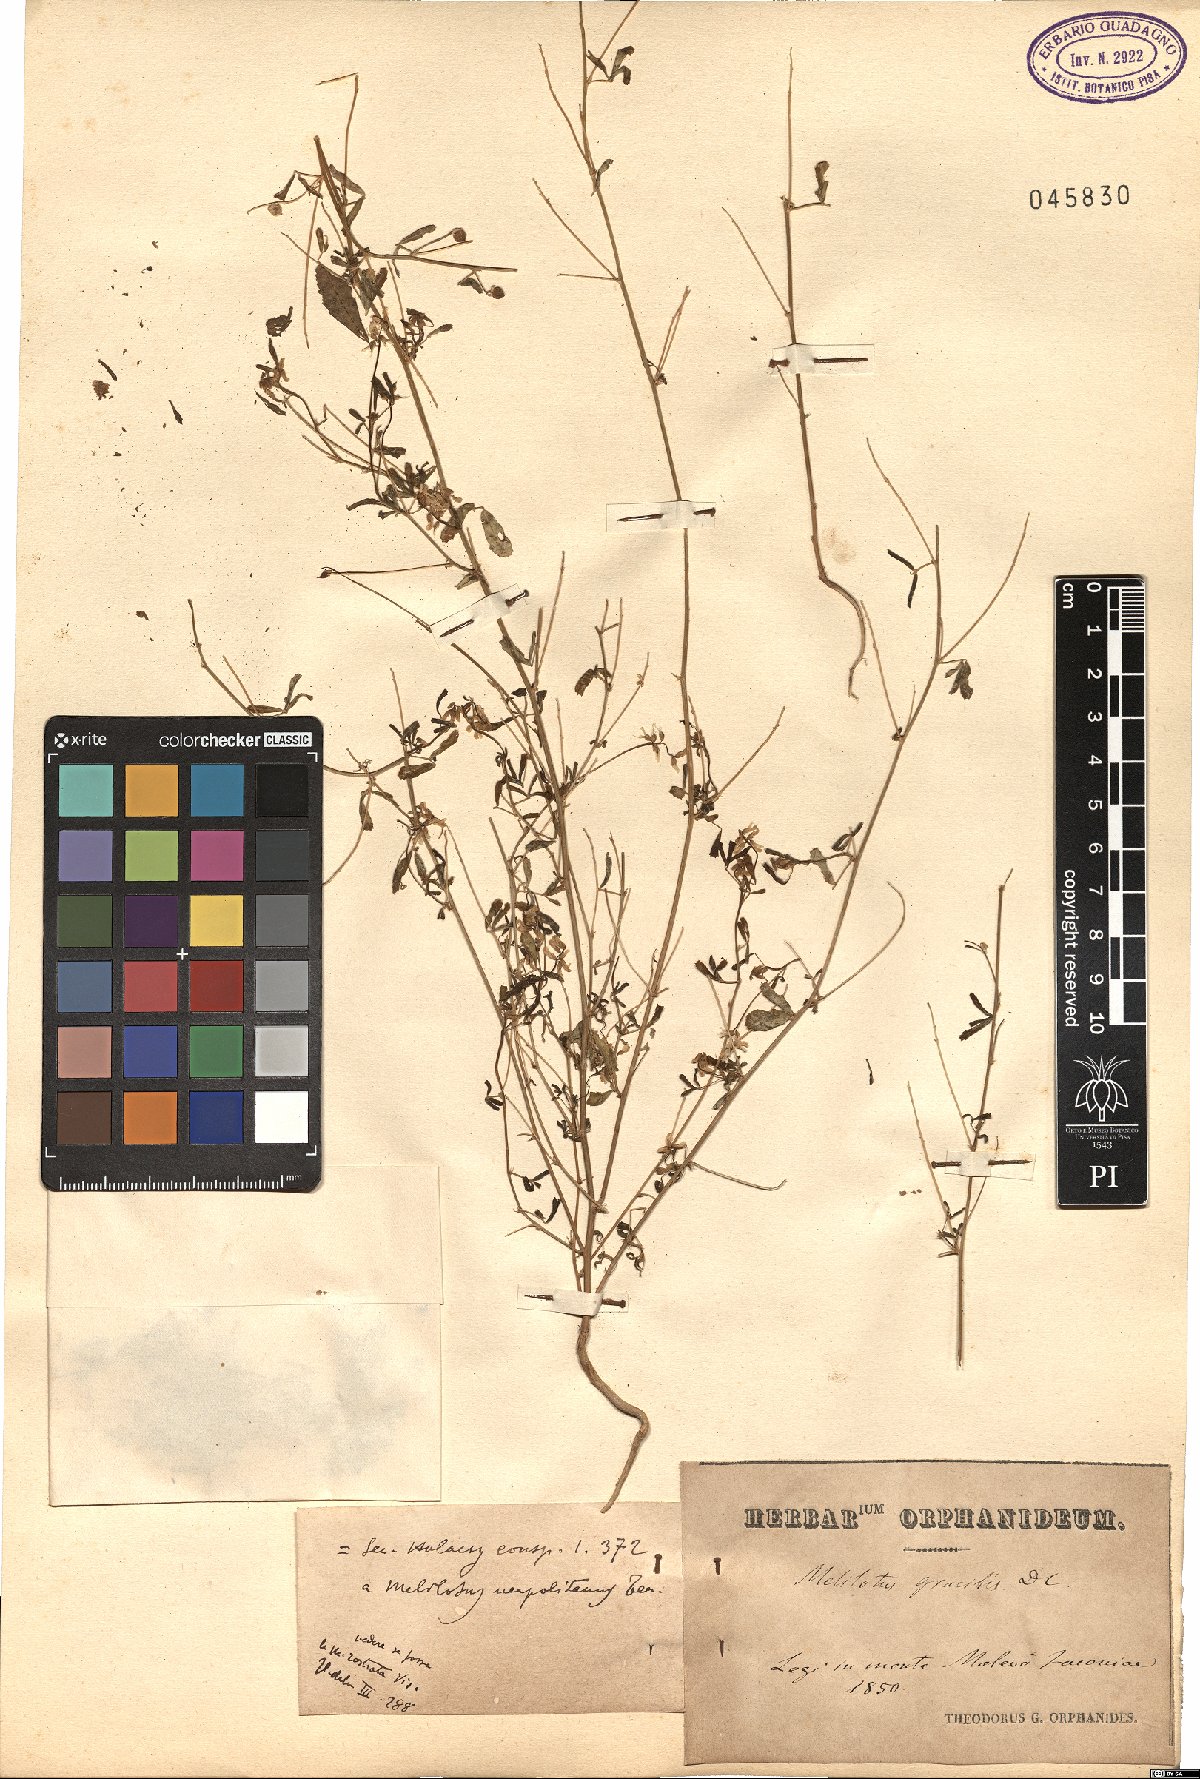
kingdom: Plantae
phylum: Tracheophyta
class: Magnoliopsida
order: Fabales
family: Fabaceae
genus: Melilotus
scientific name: Melilotus neapolitanus
